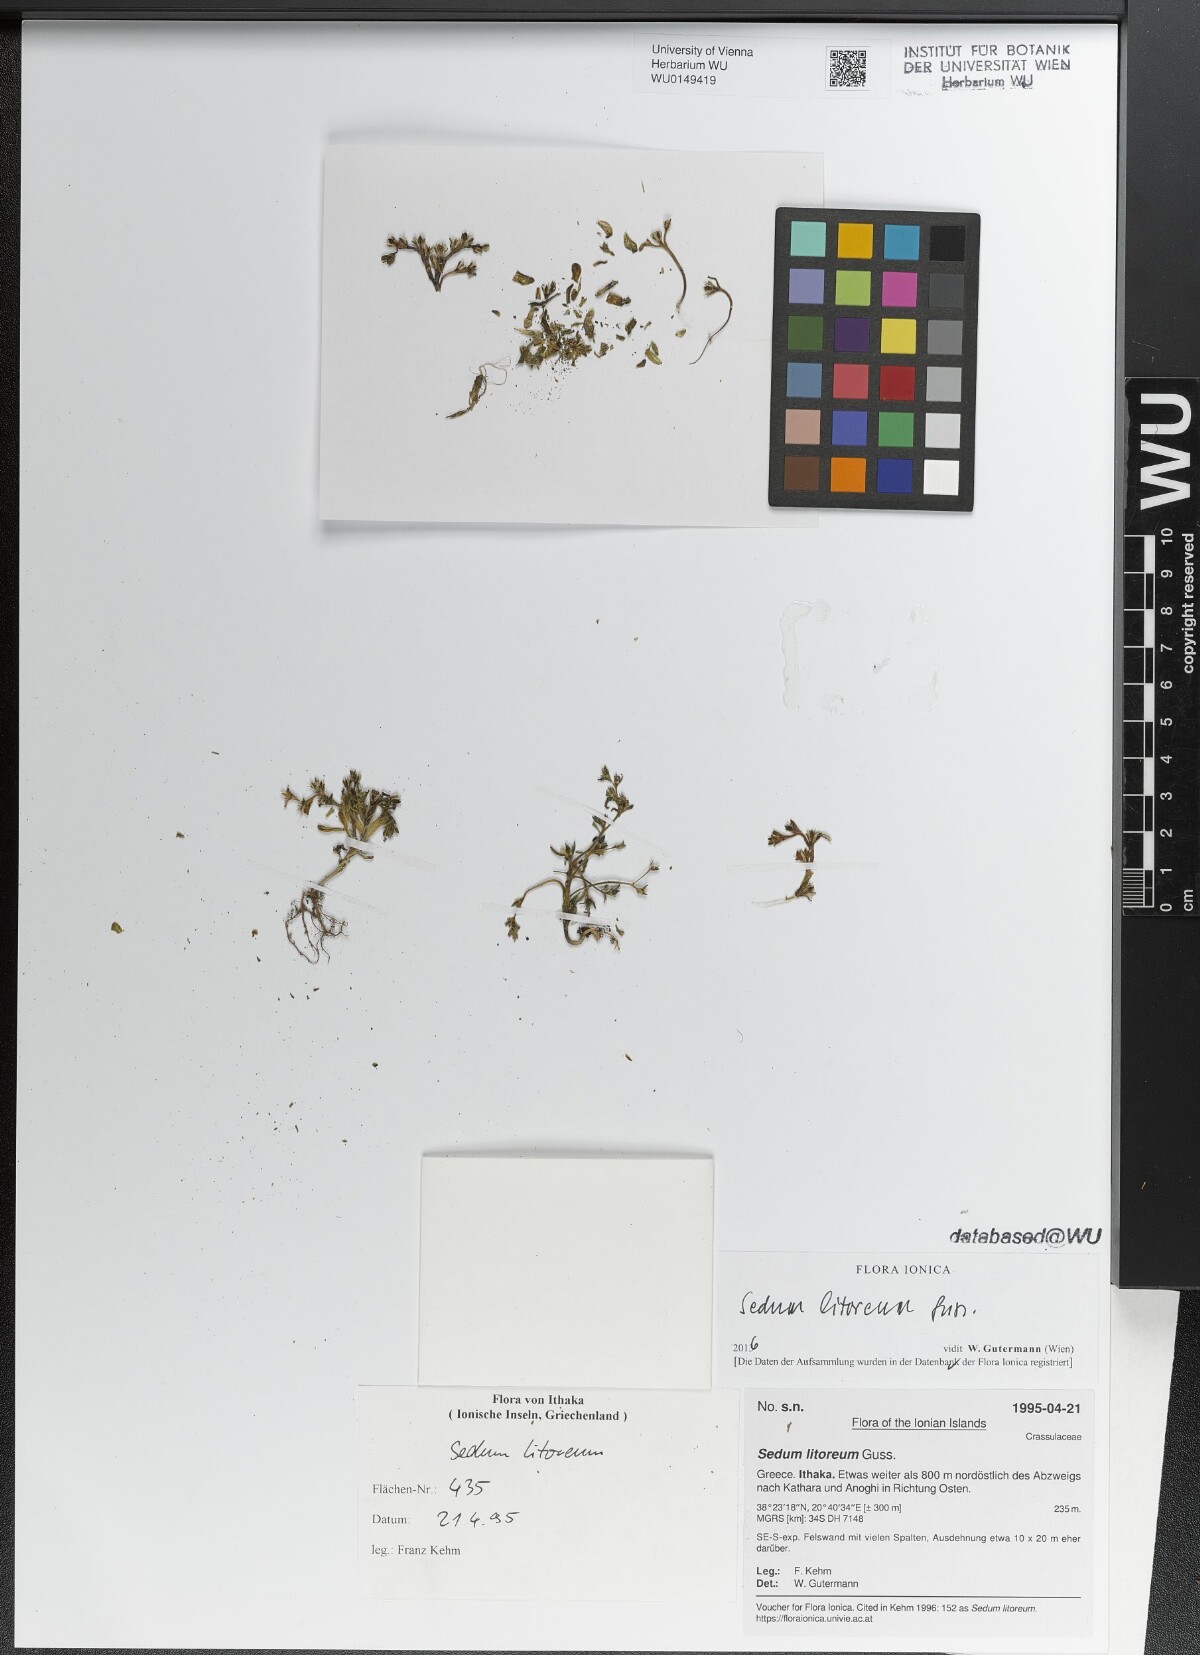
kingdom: Plantae
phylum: Tracheophyta
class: Magnoliopsida
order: Saxifragales
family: Crassulaceae
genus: Sedum
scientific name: Sedum litoreum
